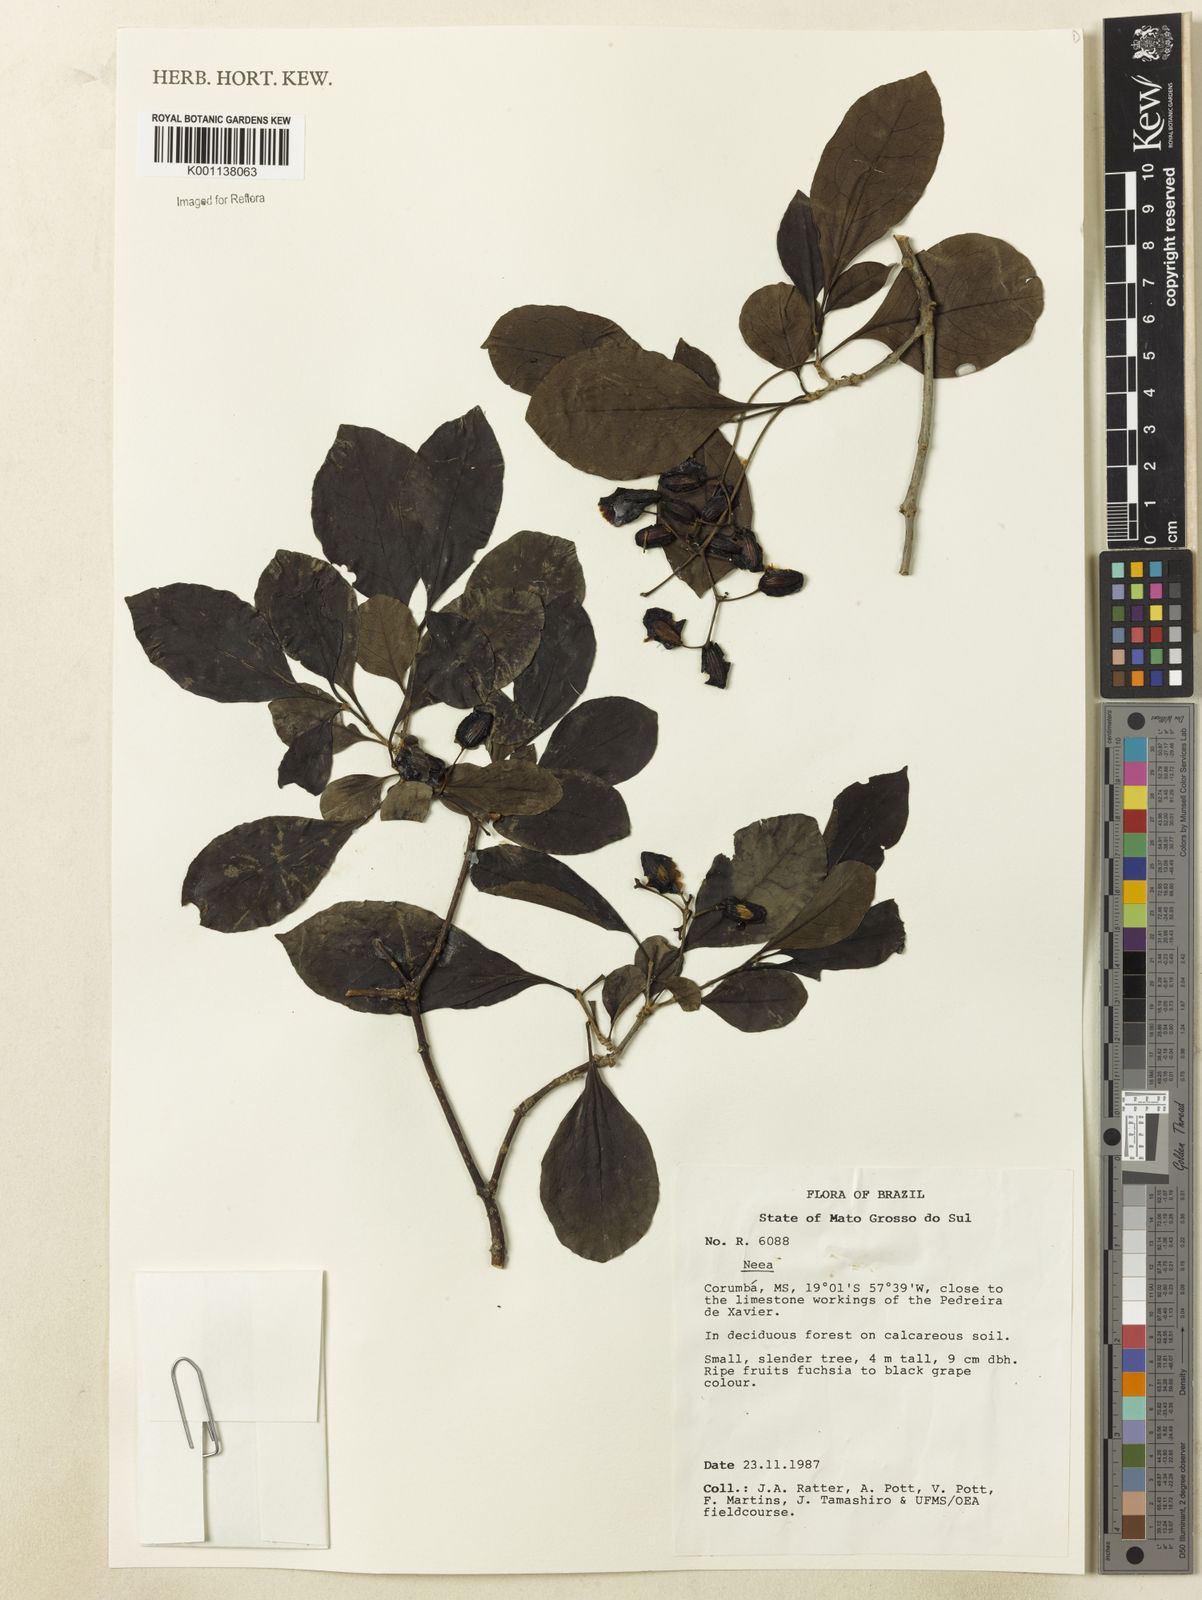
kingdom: Plantae
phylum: Tracheophyta
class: Magnoliopsida
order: Caryophyllales
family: Nyctaginaceae
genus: Neea
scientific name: Neea
